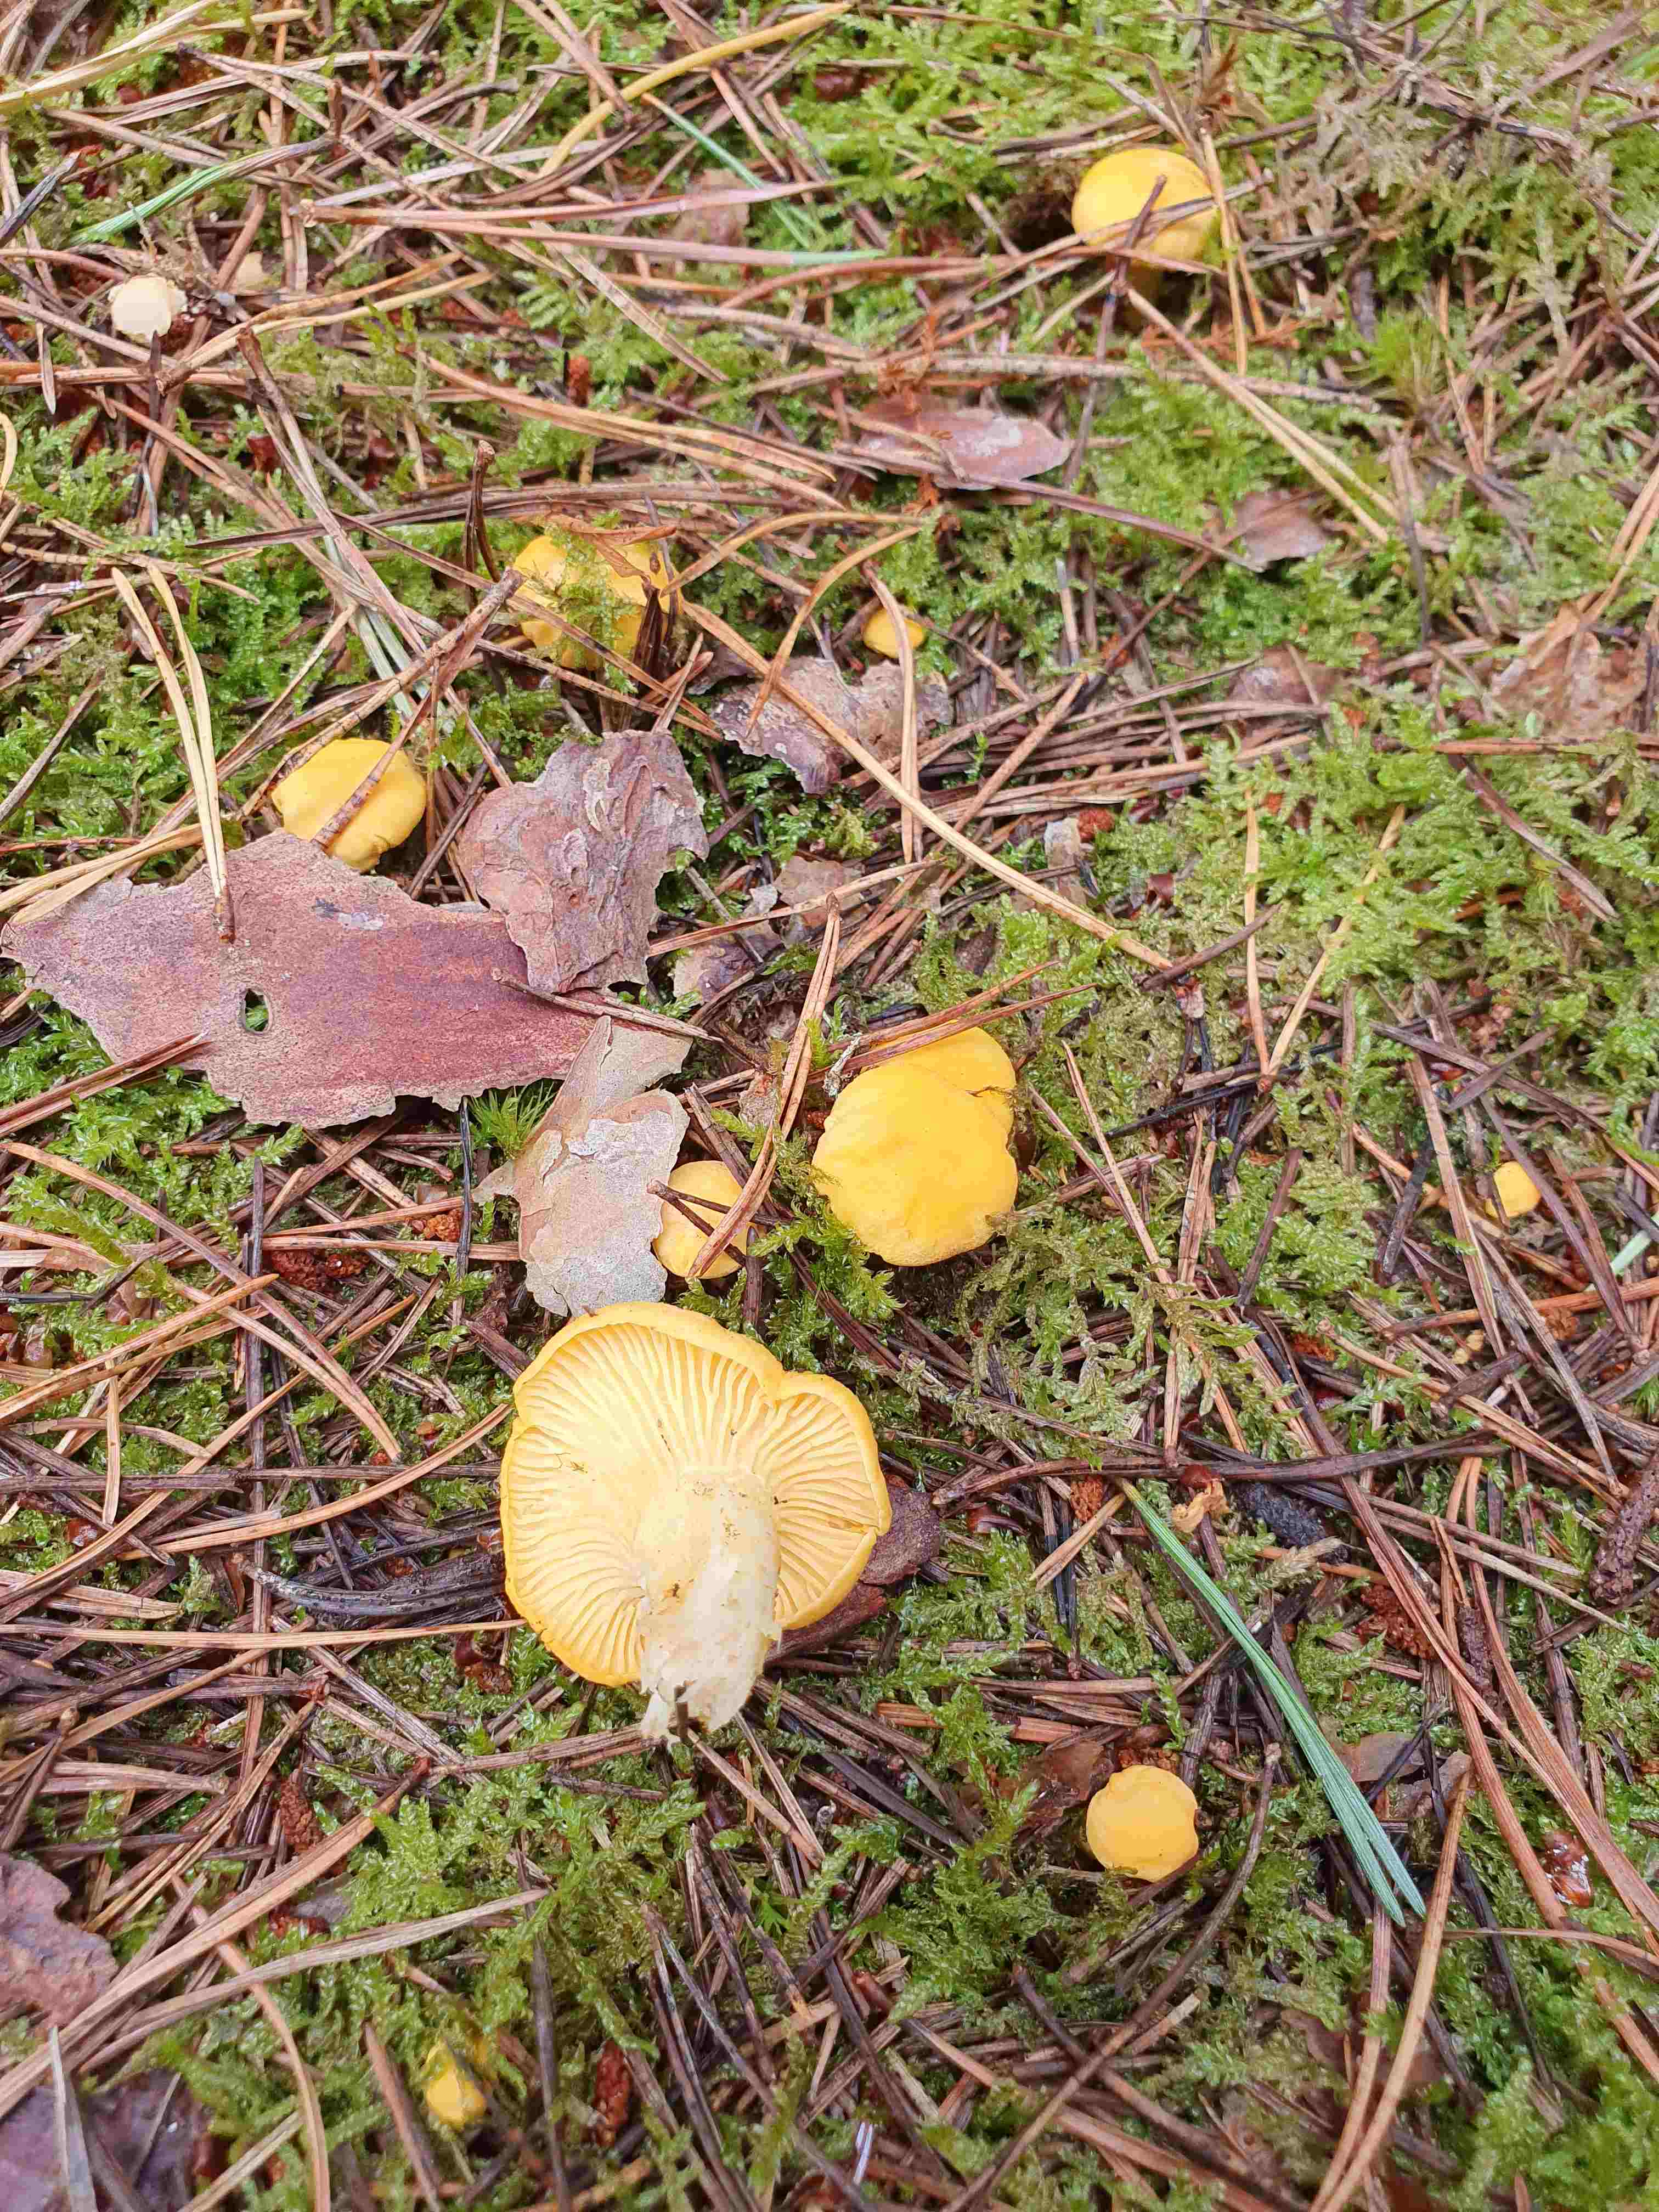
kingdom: Fungi
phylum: Basidiomycota
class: Agaricomycetes
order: Cantharellales
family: Hydnaceae
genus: Cantharellus
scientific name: Cantharellus cibarius
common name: almindelig kantarel
